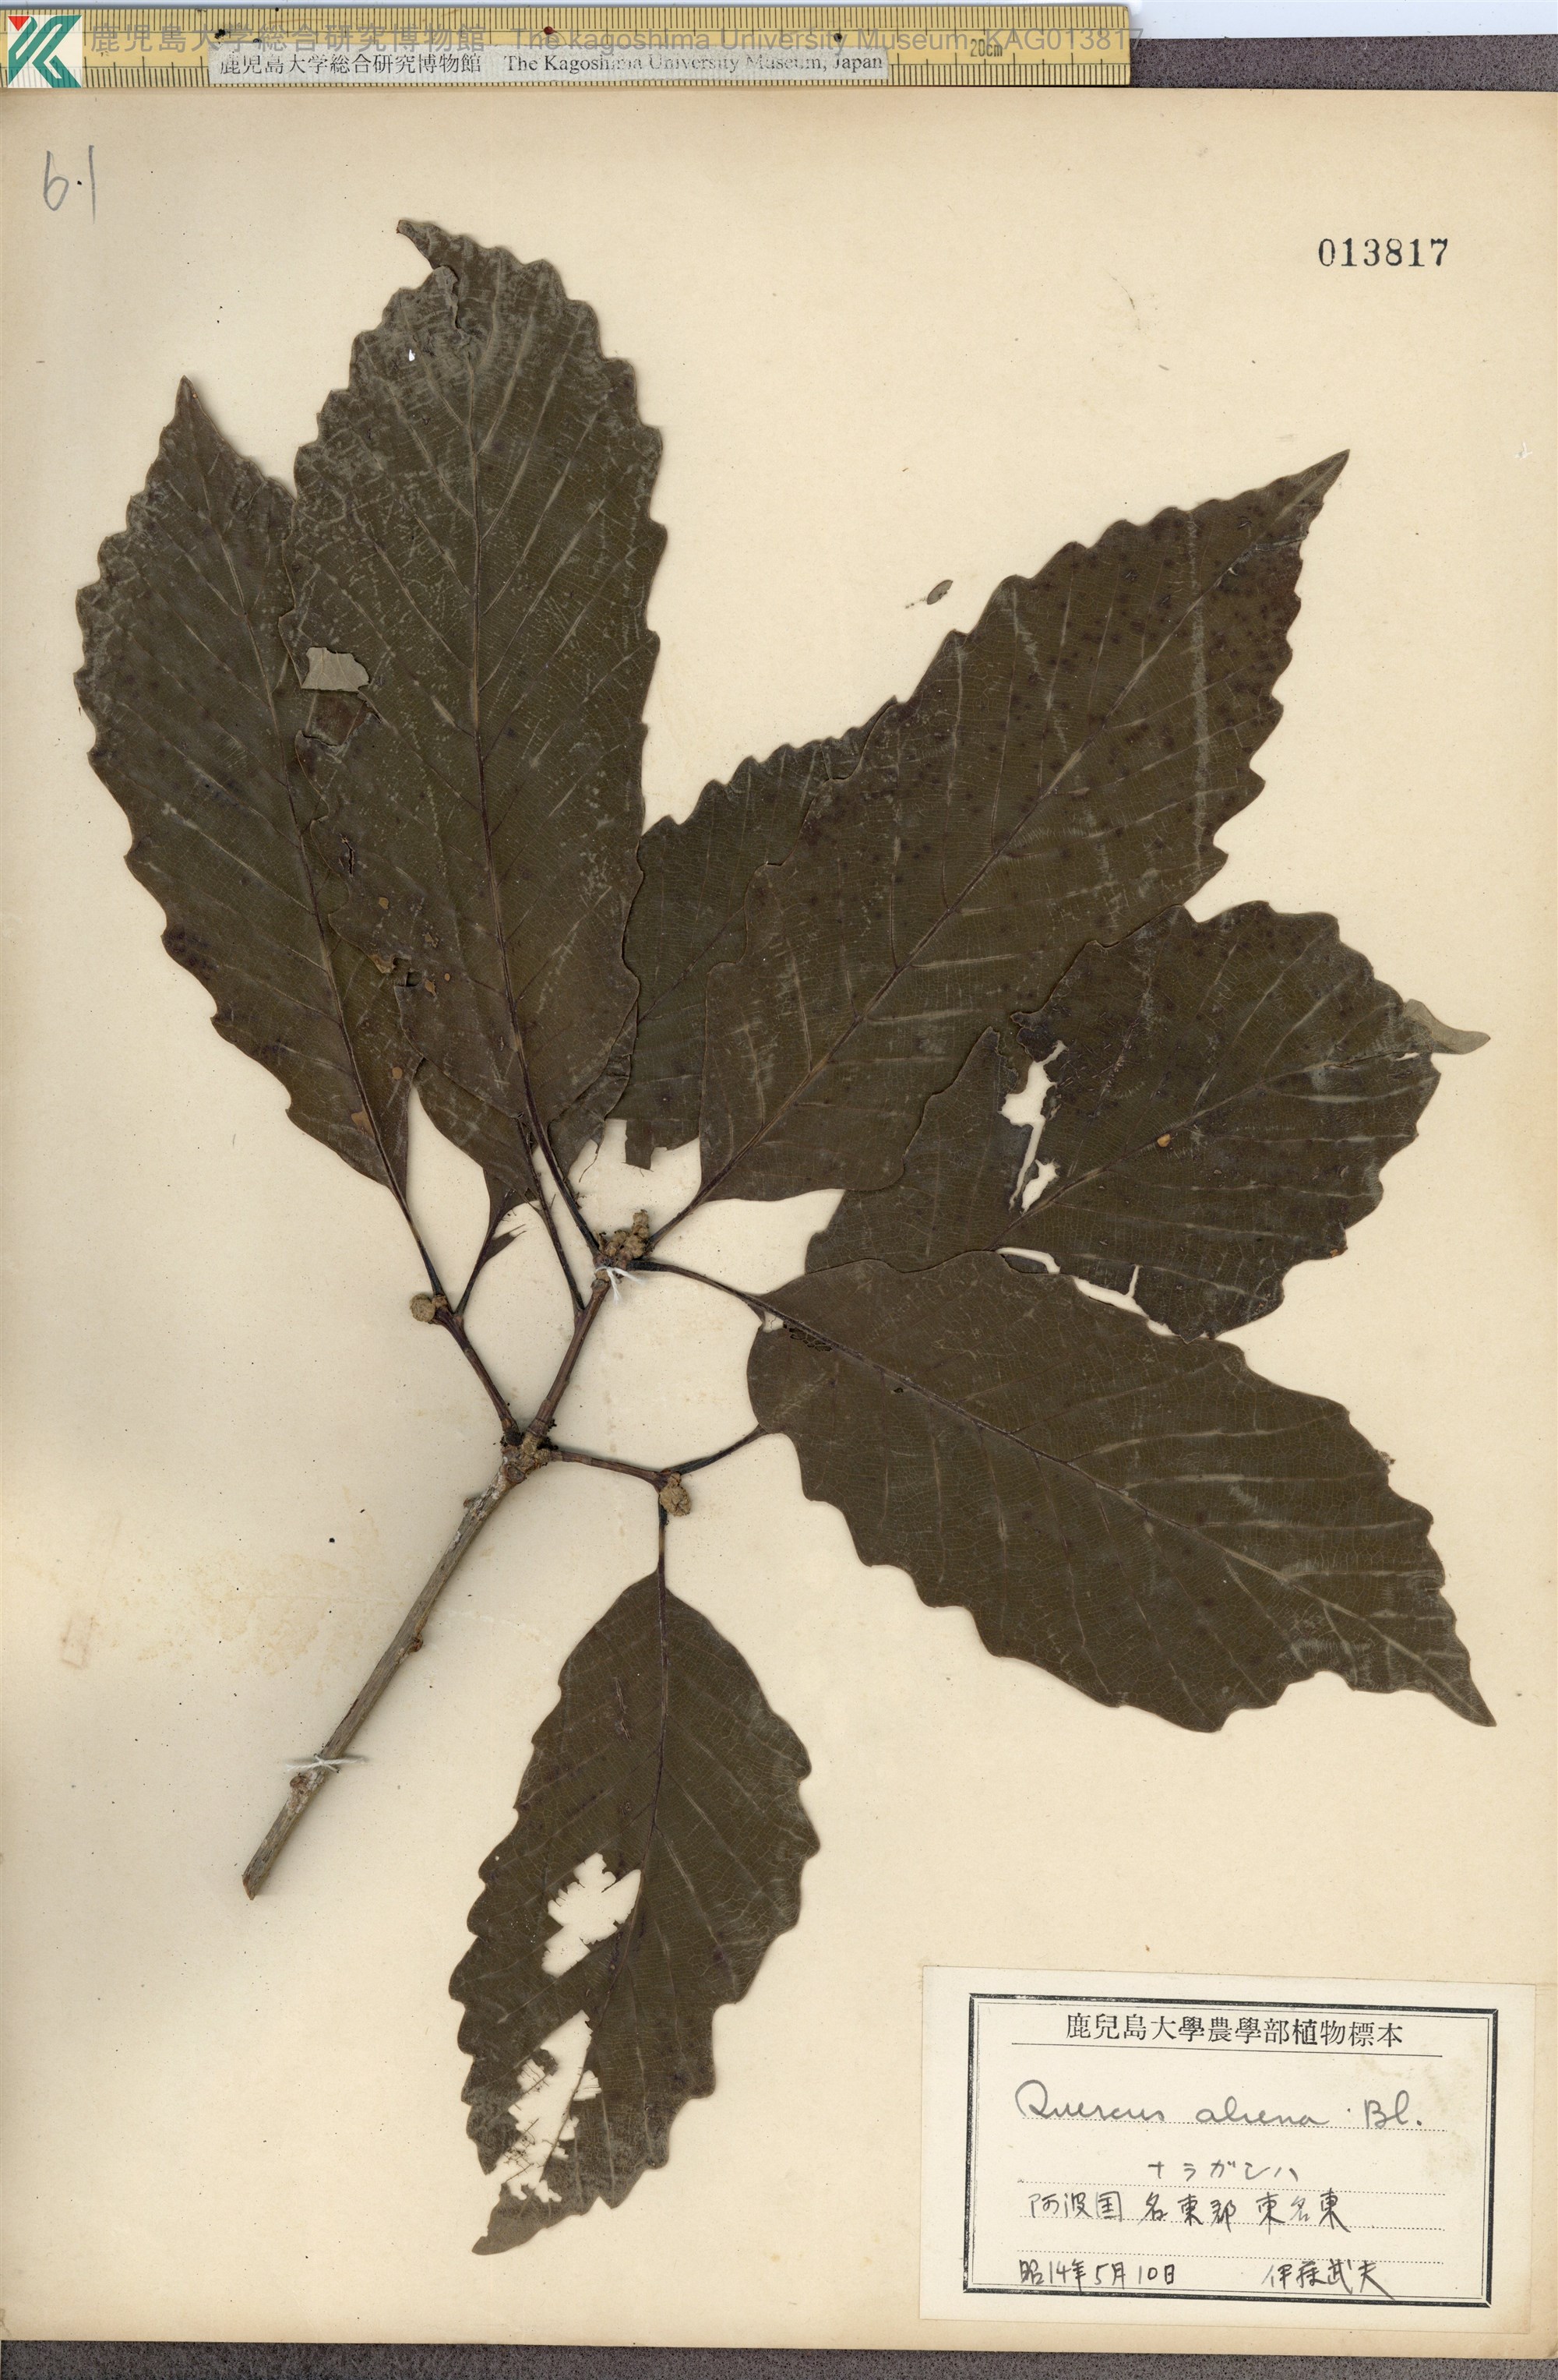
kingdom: Plantae
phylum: Tracheophyta
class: Magnoliopsida
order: Fagales
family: Fagaceae
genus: Quercus
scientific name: Quercus aliena
